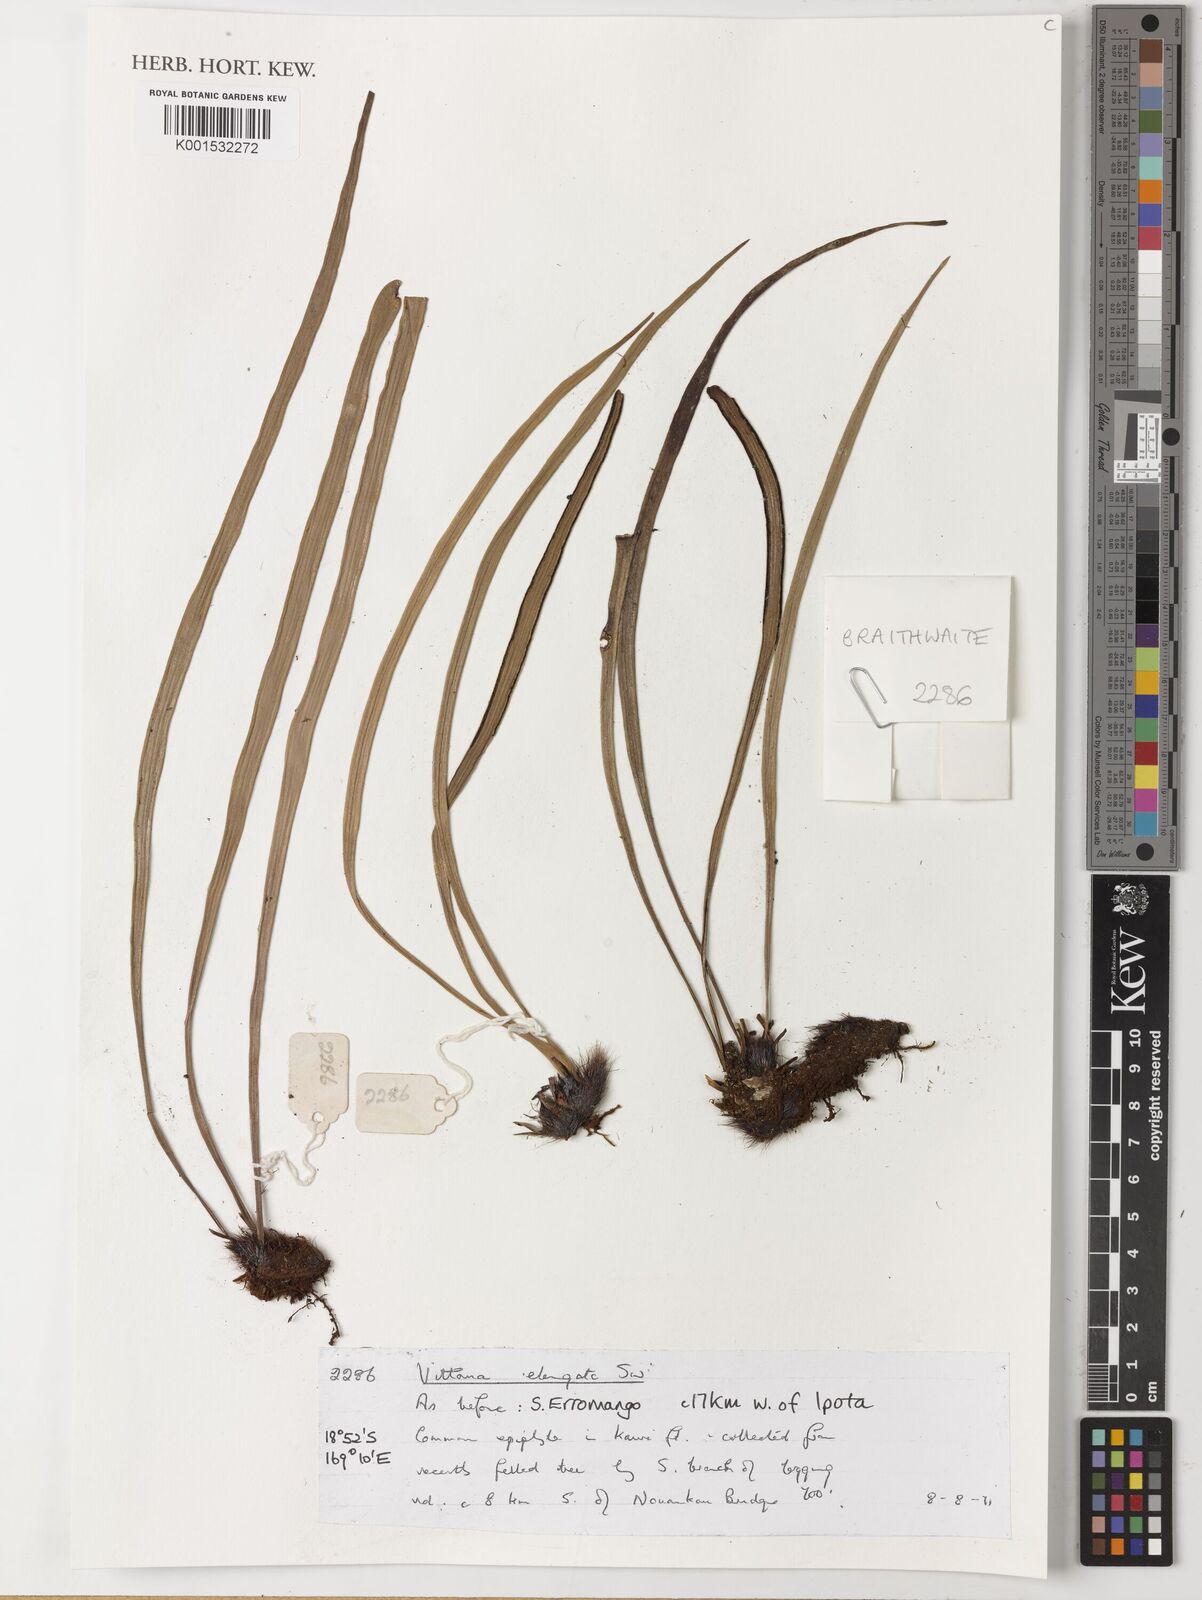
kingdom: Plantae
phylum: Tracheophyta
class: Polypodiopsida
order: Polypodiales
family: Pteridaceae
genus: Haplopteris
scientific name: Haplopteris elongata
